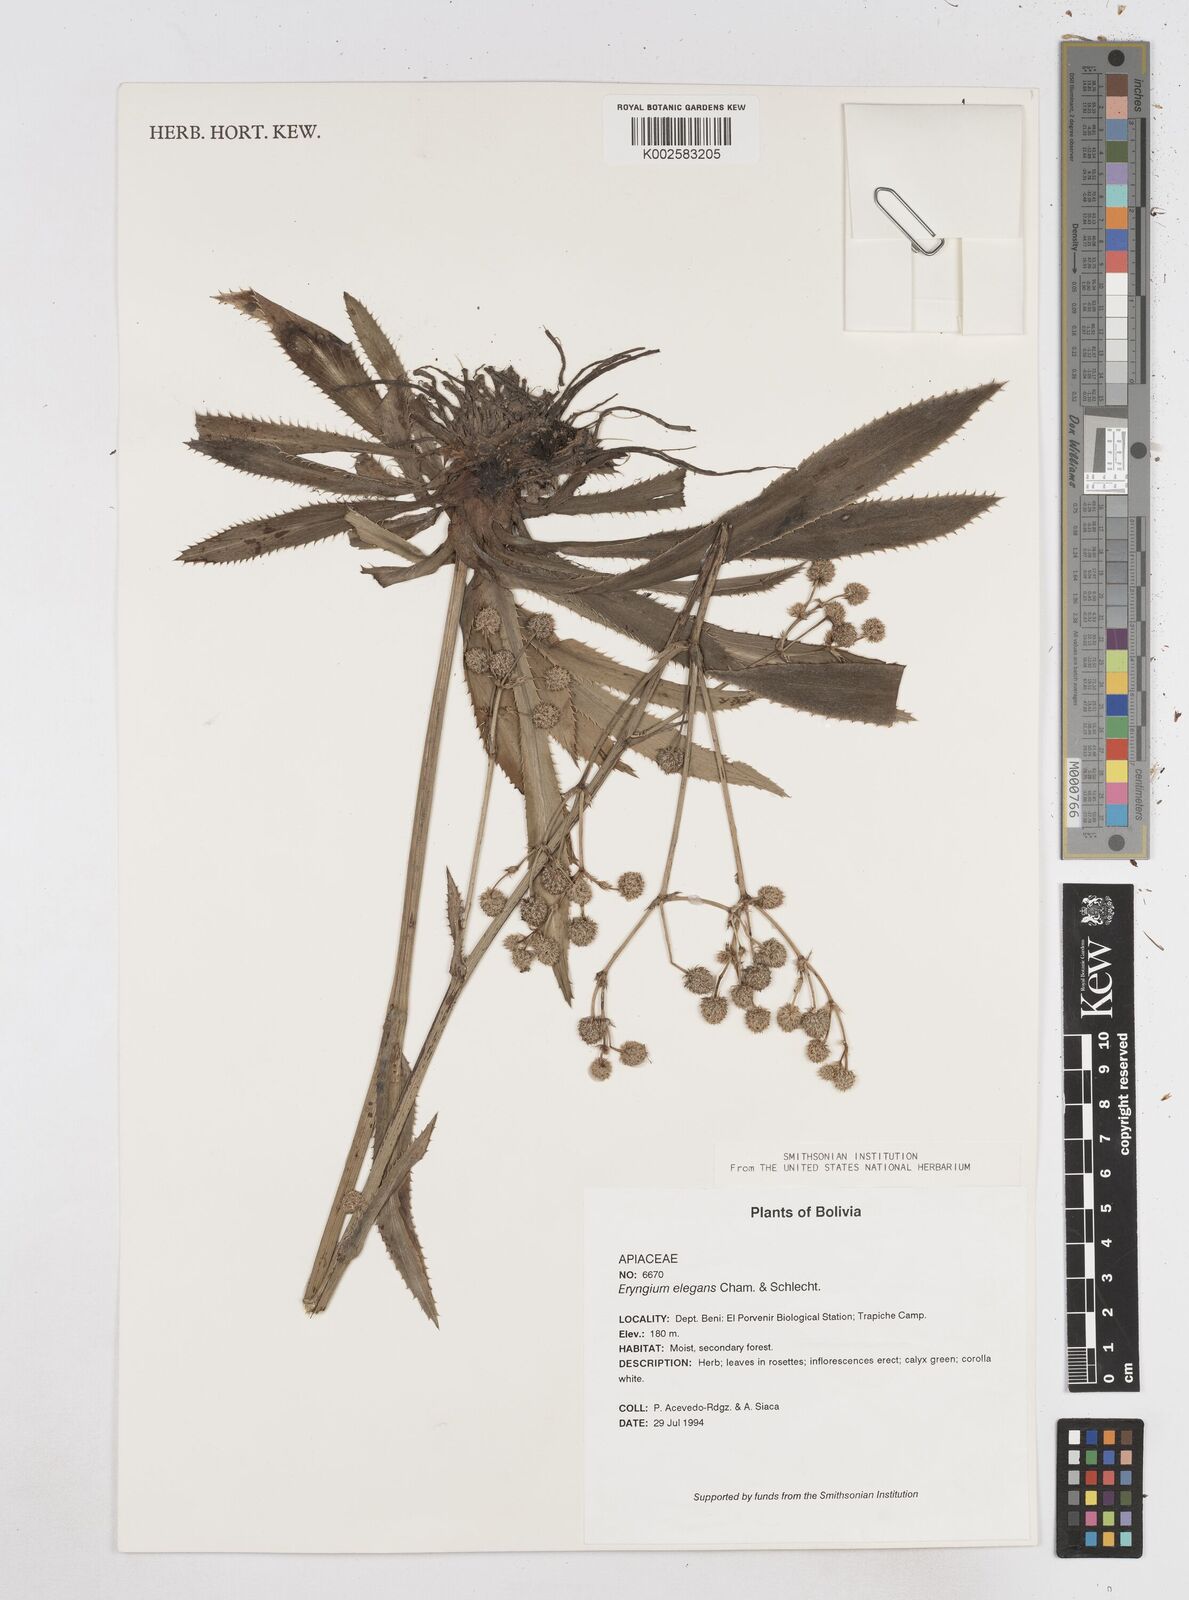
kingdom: Plantae
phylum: Tracheophyta
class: Magnoliopsida
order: Apiales
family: Apiaceae
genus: Eryngium
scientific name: Eryngium elegans
